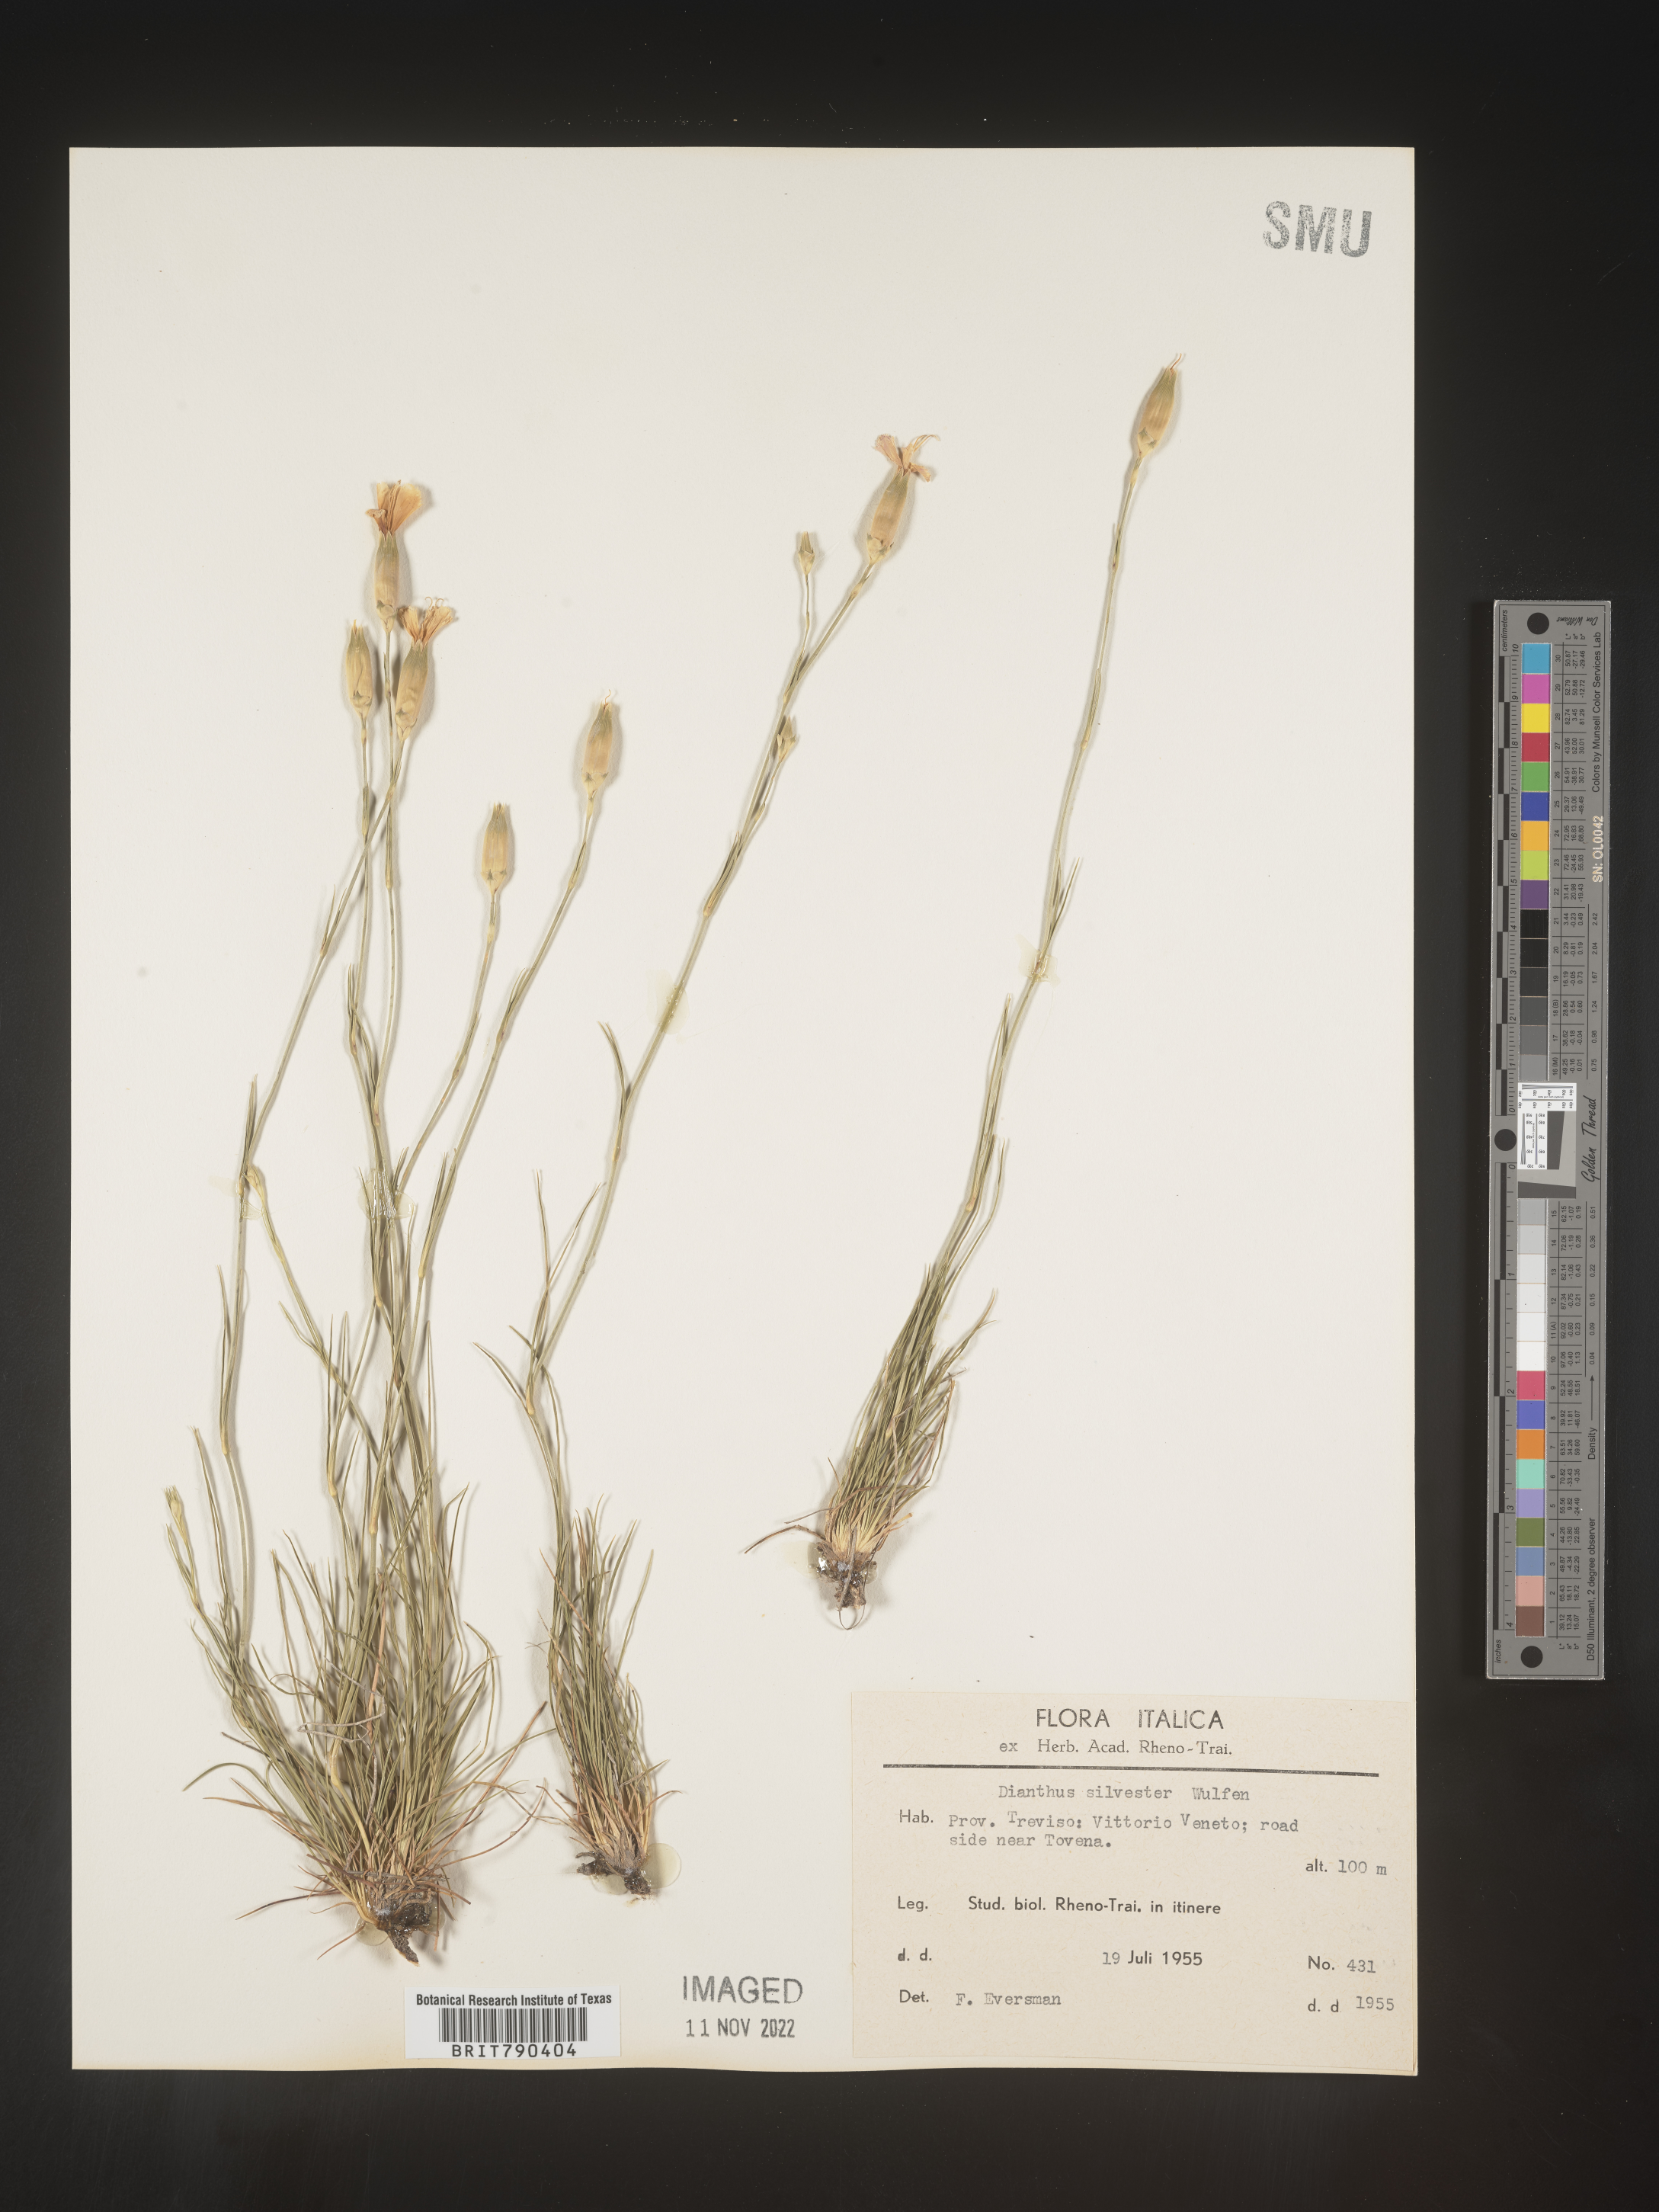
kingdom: Plantae
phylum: Tracheophyta
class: Magnoliopsida
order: Caryophyllales
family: Caryophyllaceae
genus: Dianthus
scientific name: Dianthus
